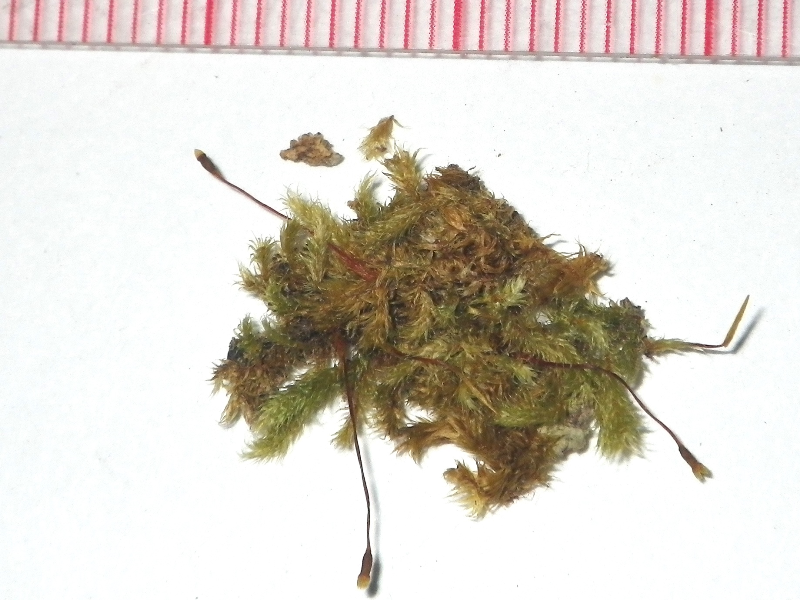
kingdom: Plantae
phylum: Bryophyta
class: Bryopsida
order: Hypnales
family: Sematophyllaceae
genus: Macrohymenium
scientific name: Macrohymenium mitratum
